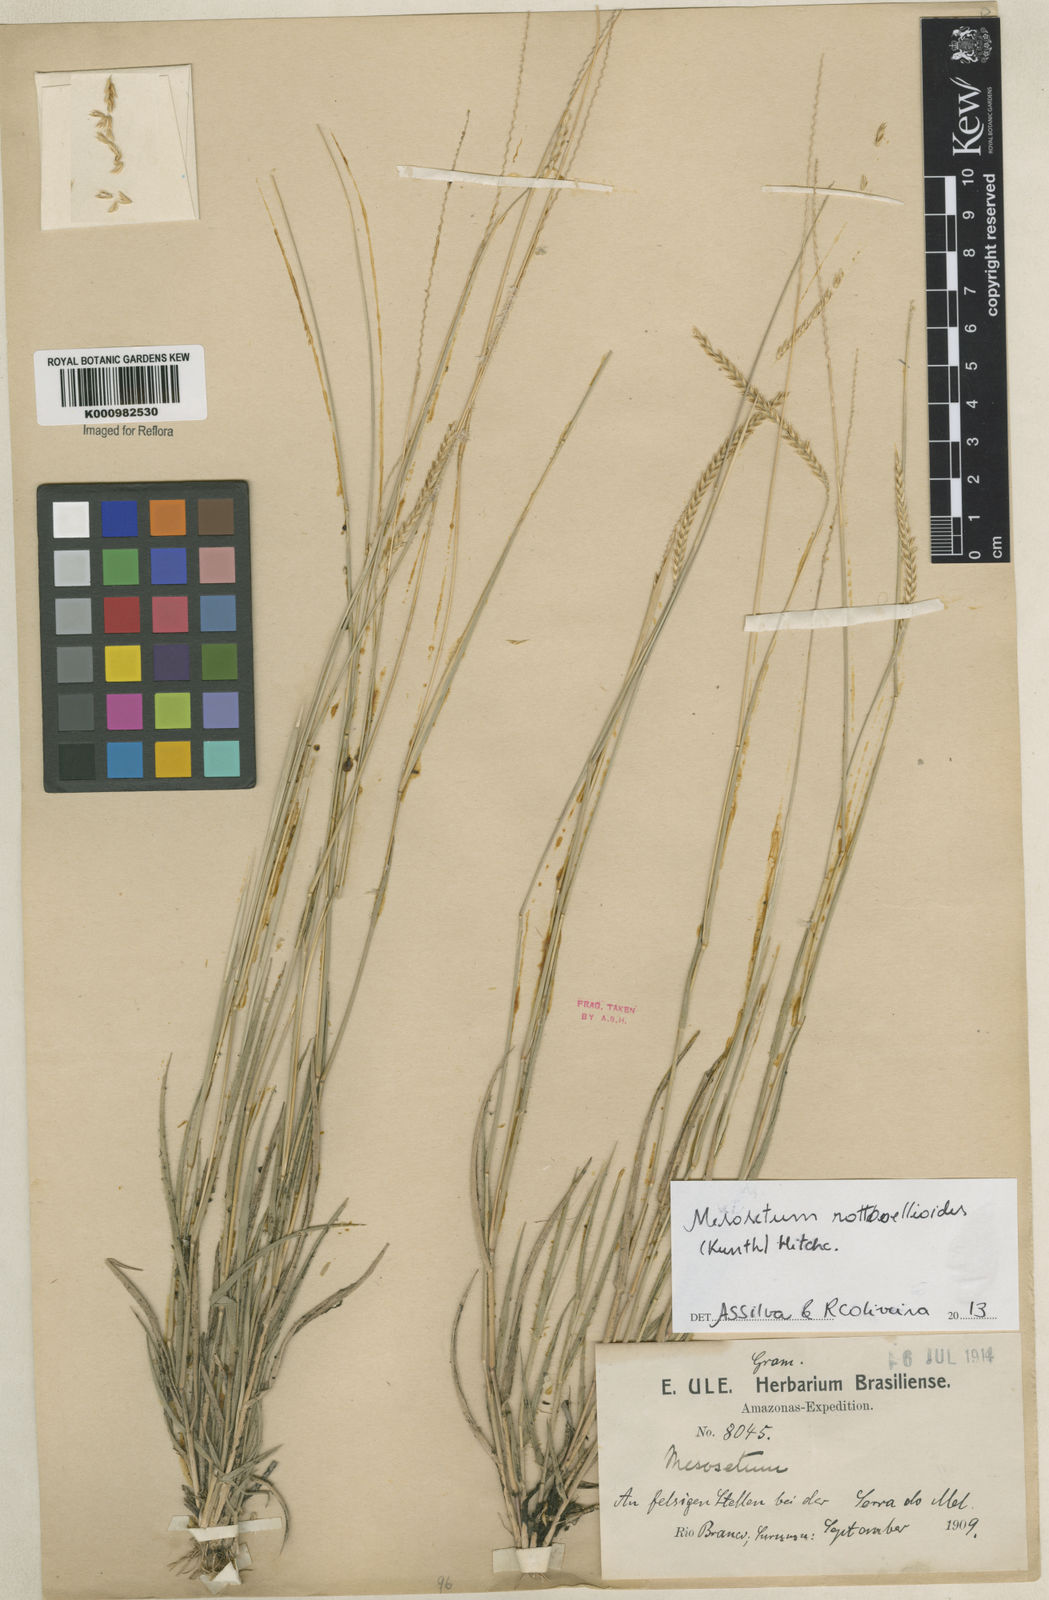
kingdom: Plantae
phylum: Tracheophyta
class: Liliopsida
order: Poales
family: Poaceae
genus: Mesosetum
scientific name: Mesosetum rottboellioides
